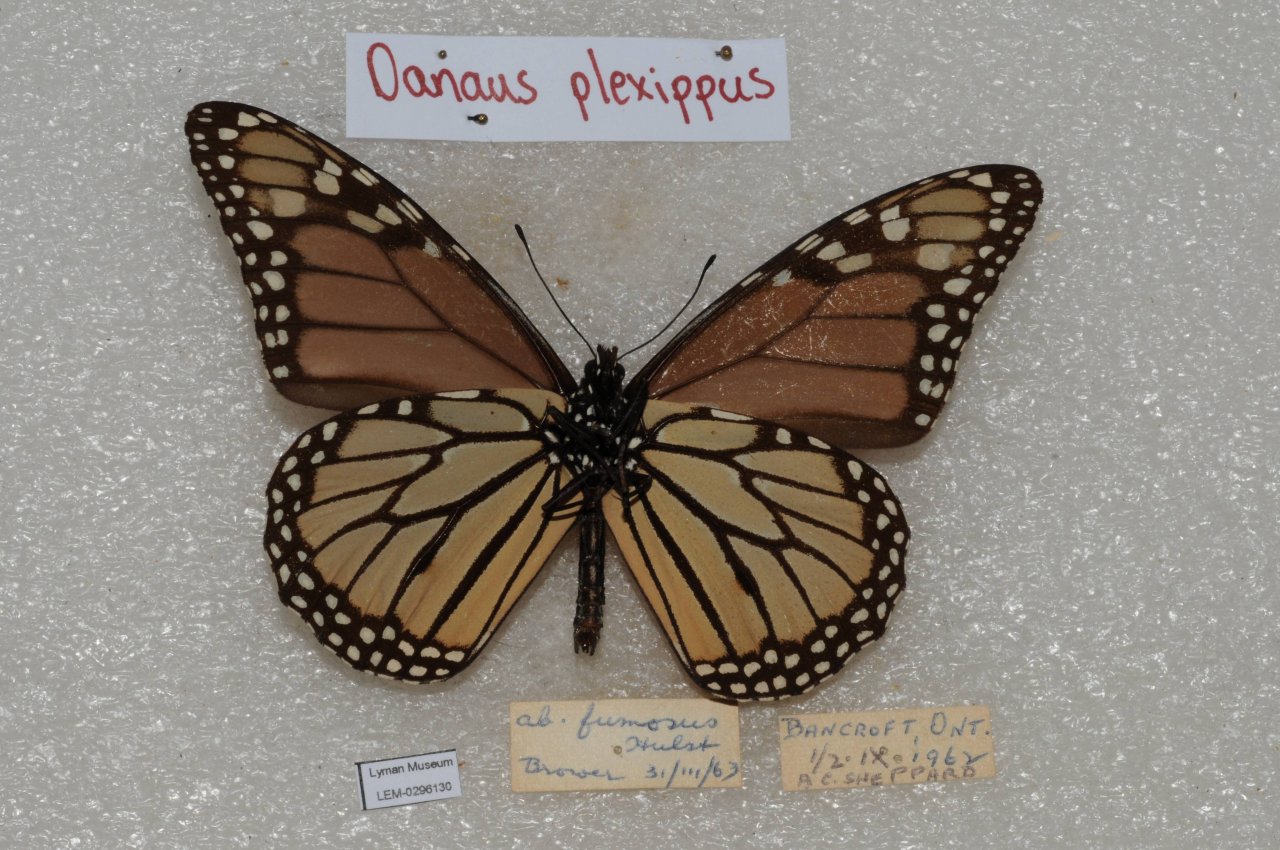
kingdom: Animalia
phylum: Arthropoda
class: Insecta
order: Lepidoptera
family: Nymphalidae
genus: Danaus
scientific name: Danaus plexippus
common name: Monarch
